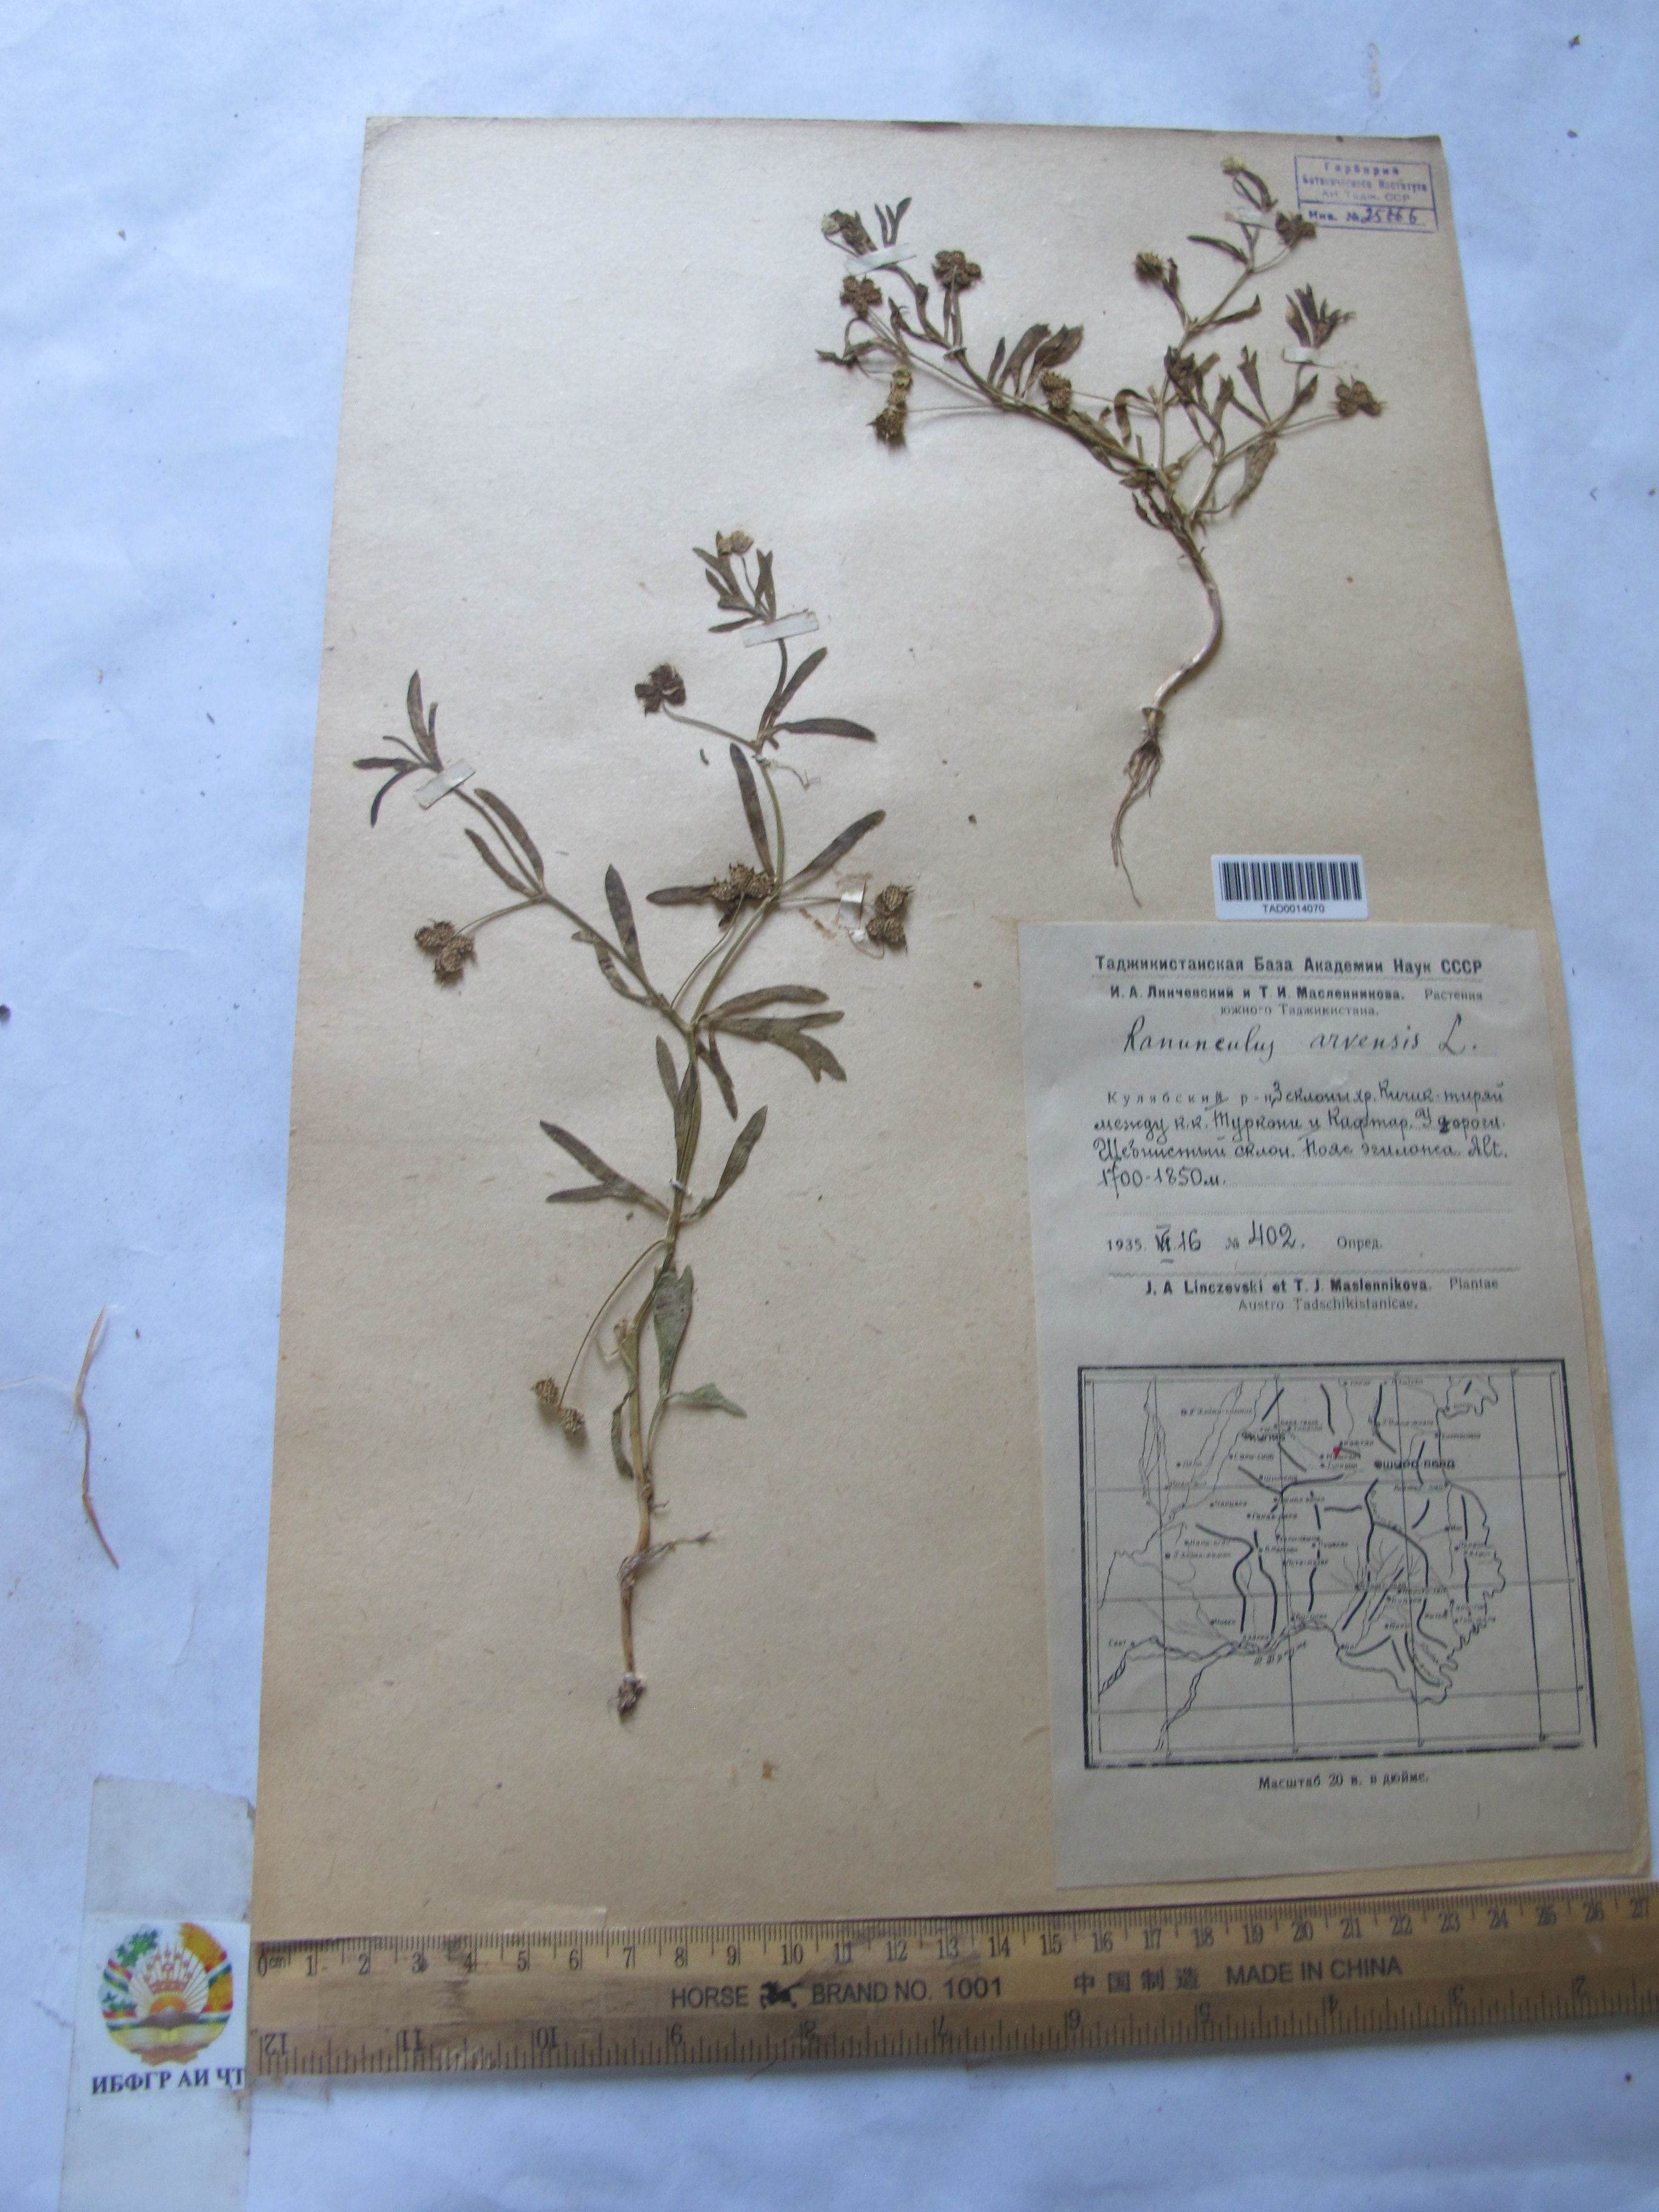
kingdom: Plantae
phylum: Tracheophyta
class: Magnoliopsida
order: Ranunculales
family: Ranunculaceae
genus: Ranunculus
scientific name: Ranunculus arvensis
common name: Corn buttercup
